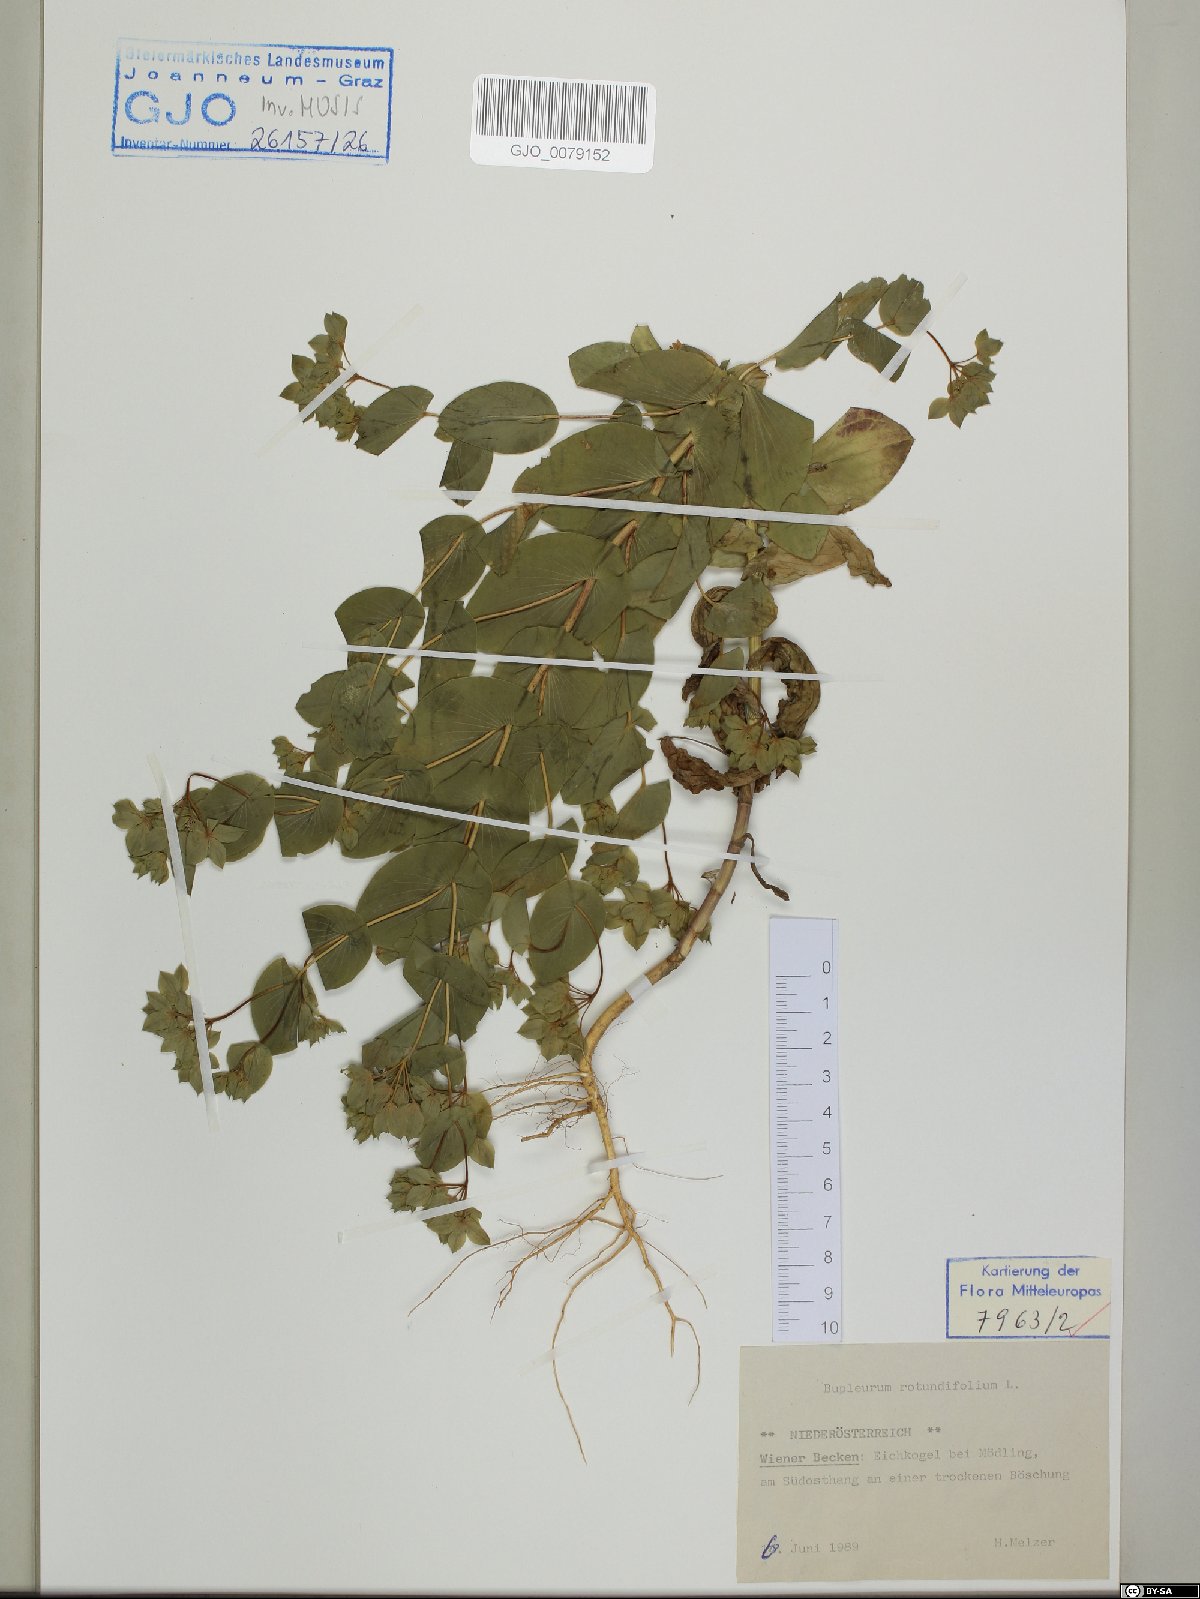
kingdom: Plantae
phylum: Tracheophyta
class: Magnoliopsida
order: Apiales
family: Apiaceae
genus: Bupleurum
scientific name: Bupleurum rotundifolium
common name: Thorow-wax
